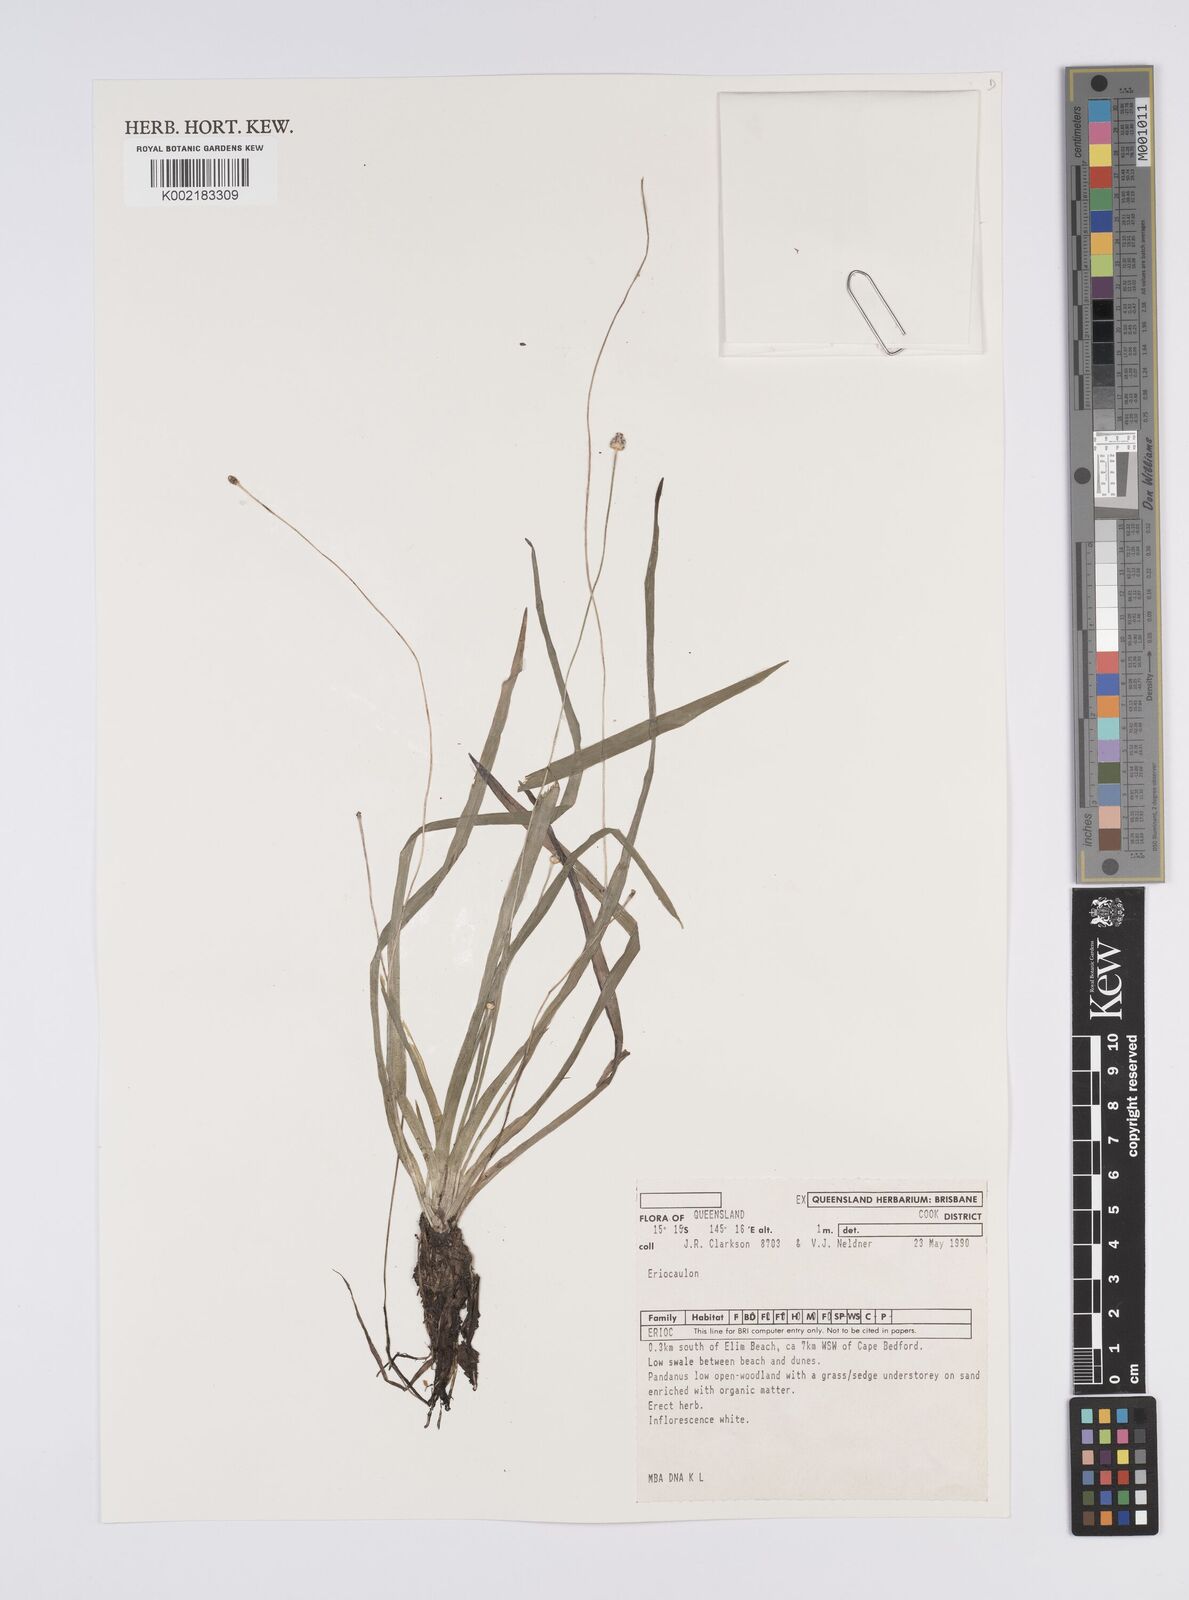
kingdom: Plantae
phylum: Tracheophyta
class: Liliopsida
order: Poales
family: Eriocaulaceae
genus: Eriocaulon
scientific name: Eriocaulon
